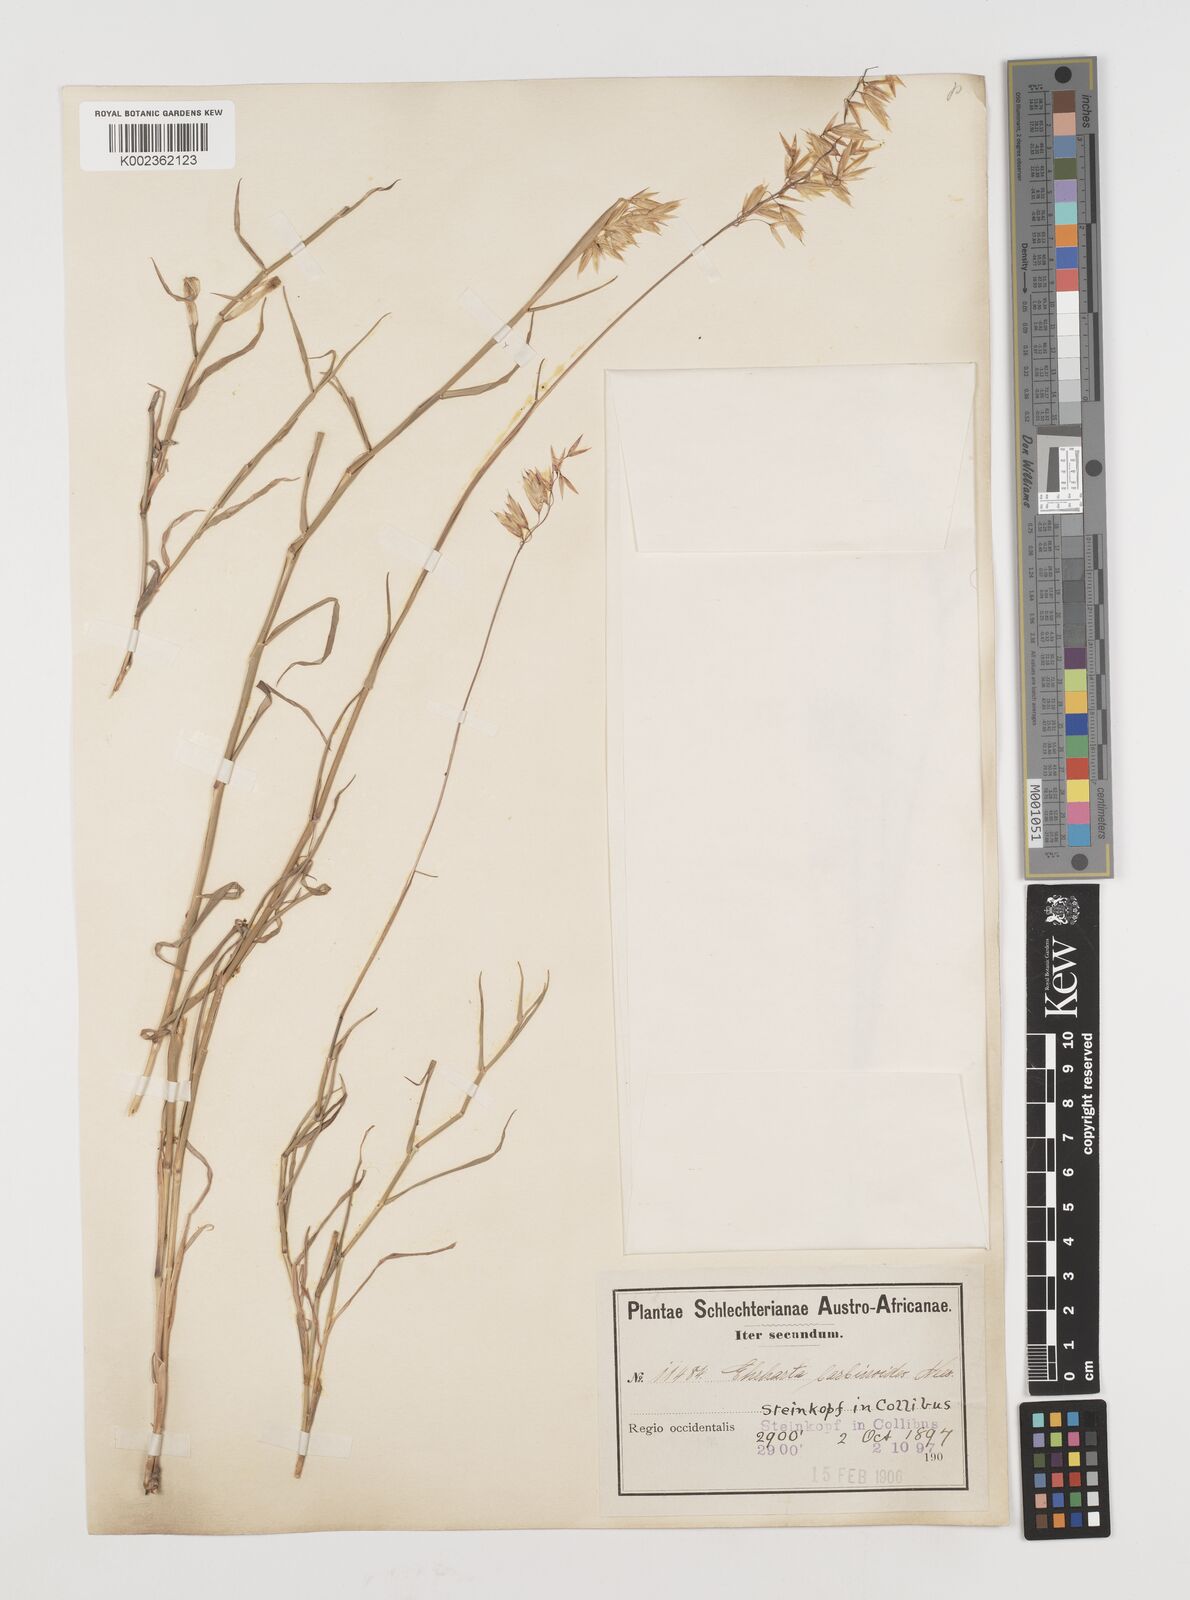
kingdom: Plantae
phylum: Tracheophyta
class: Liliopsida
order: Poales
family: Poaceae
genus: Ehrharta
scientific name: Ehrharta barbinodis
